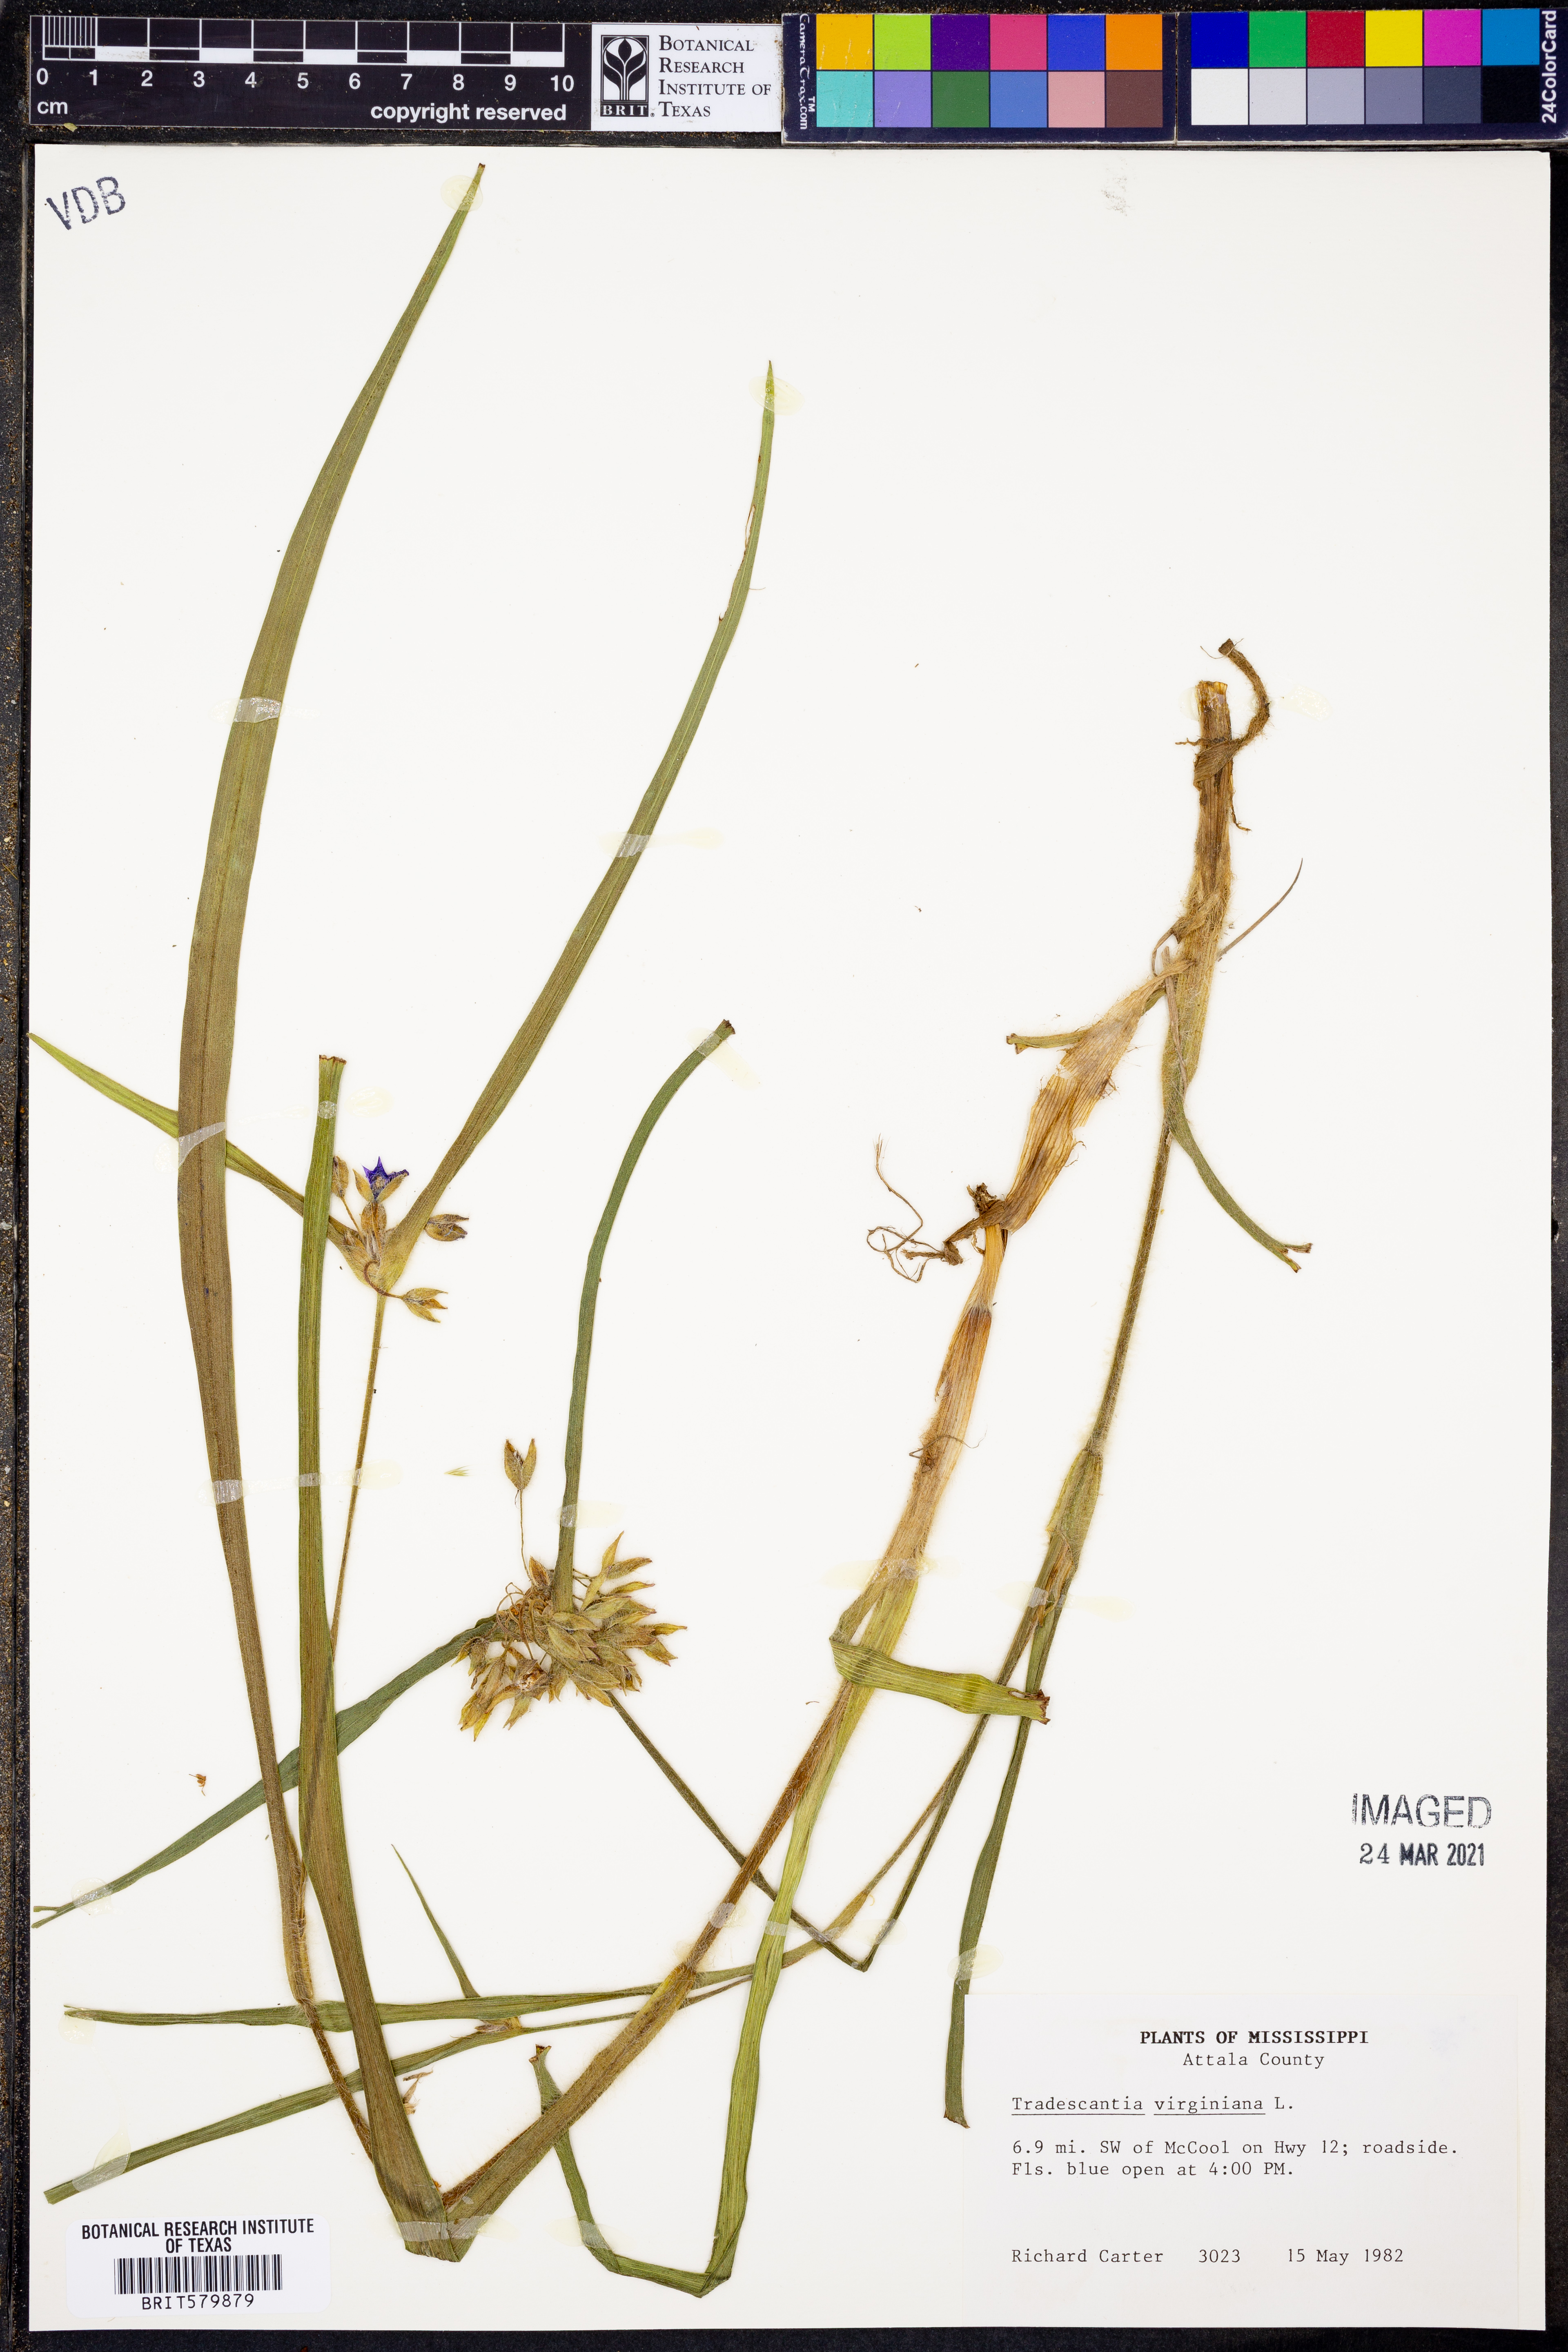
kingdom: Plantae
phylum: Tracheophyta
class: Liliopsida
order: Commelinales
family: Commelinaceae
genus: Tradescantia
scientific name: Tradescantia virginiana
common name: Spiderwort
